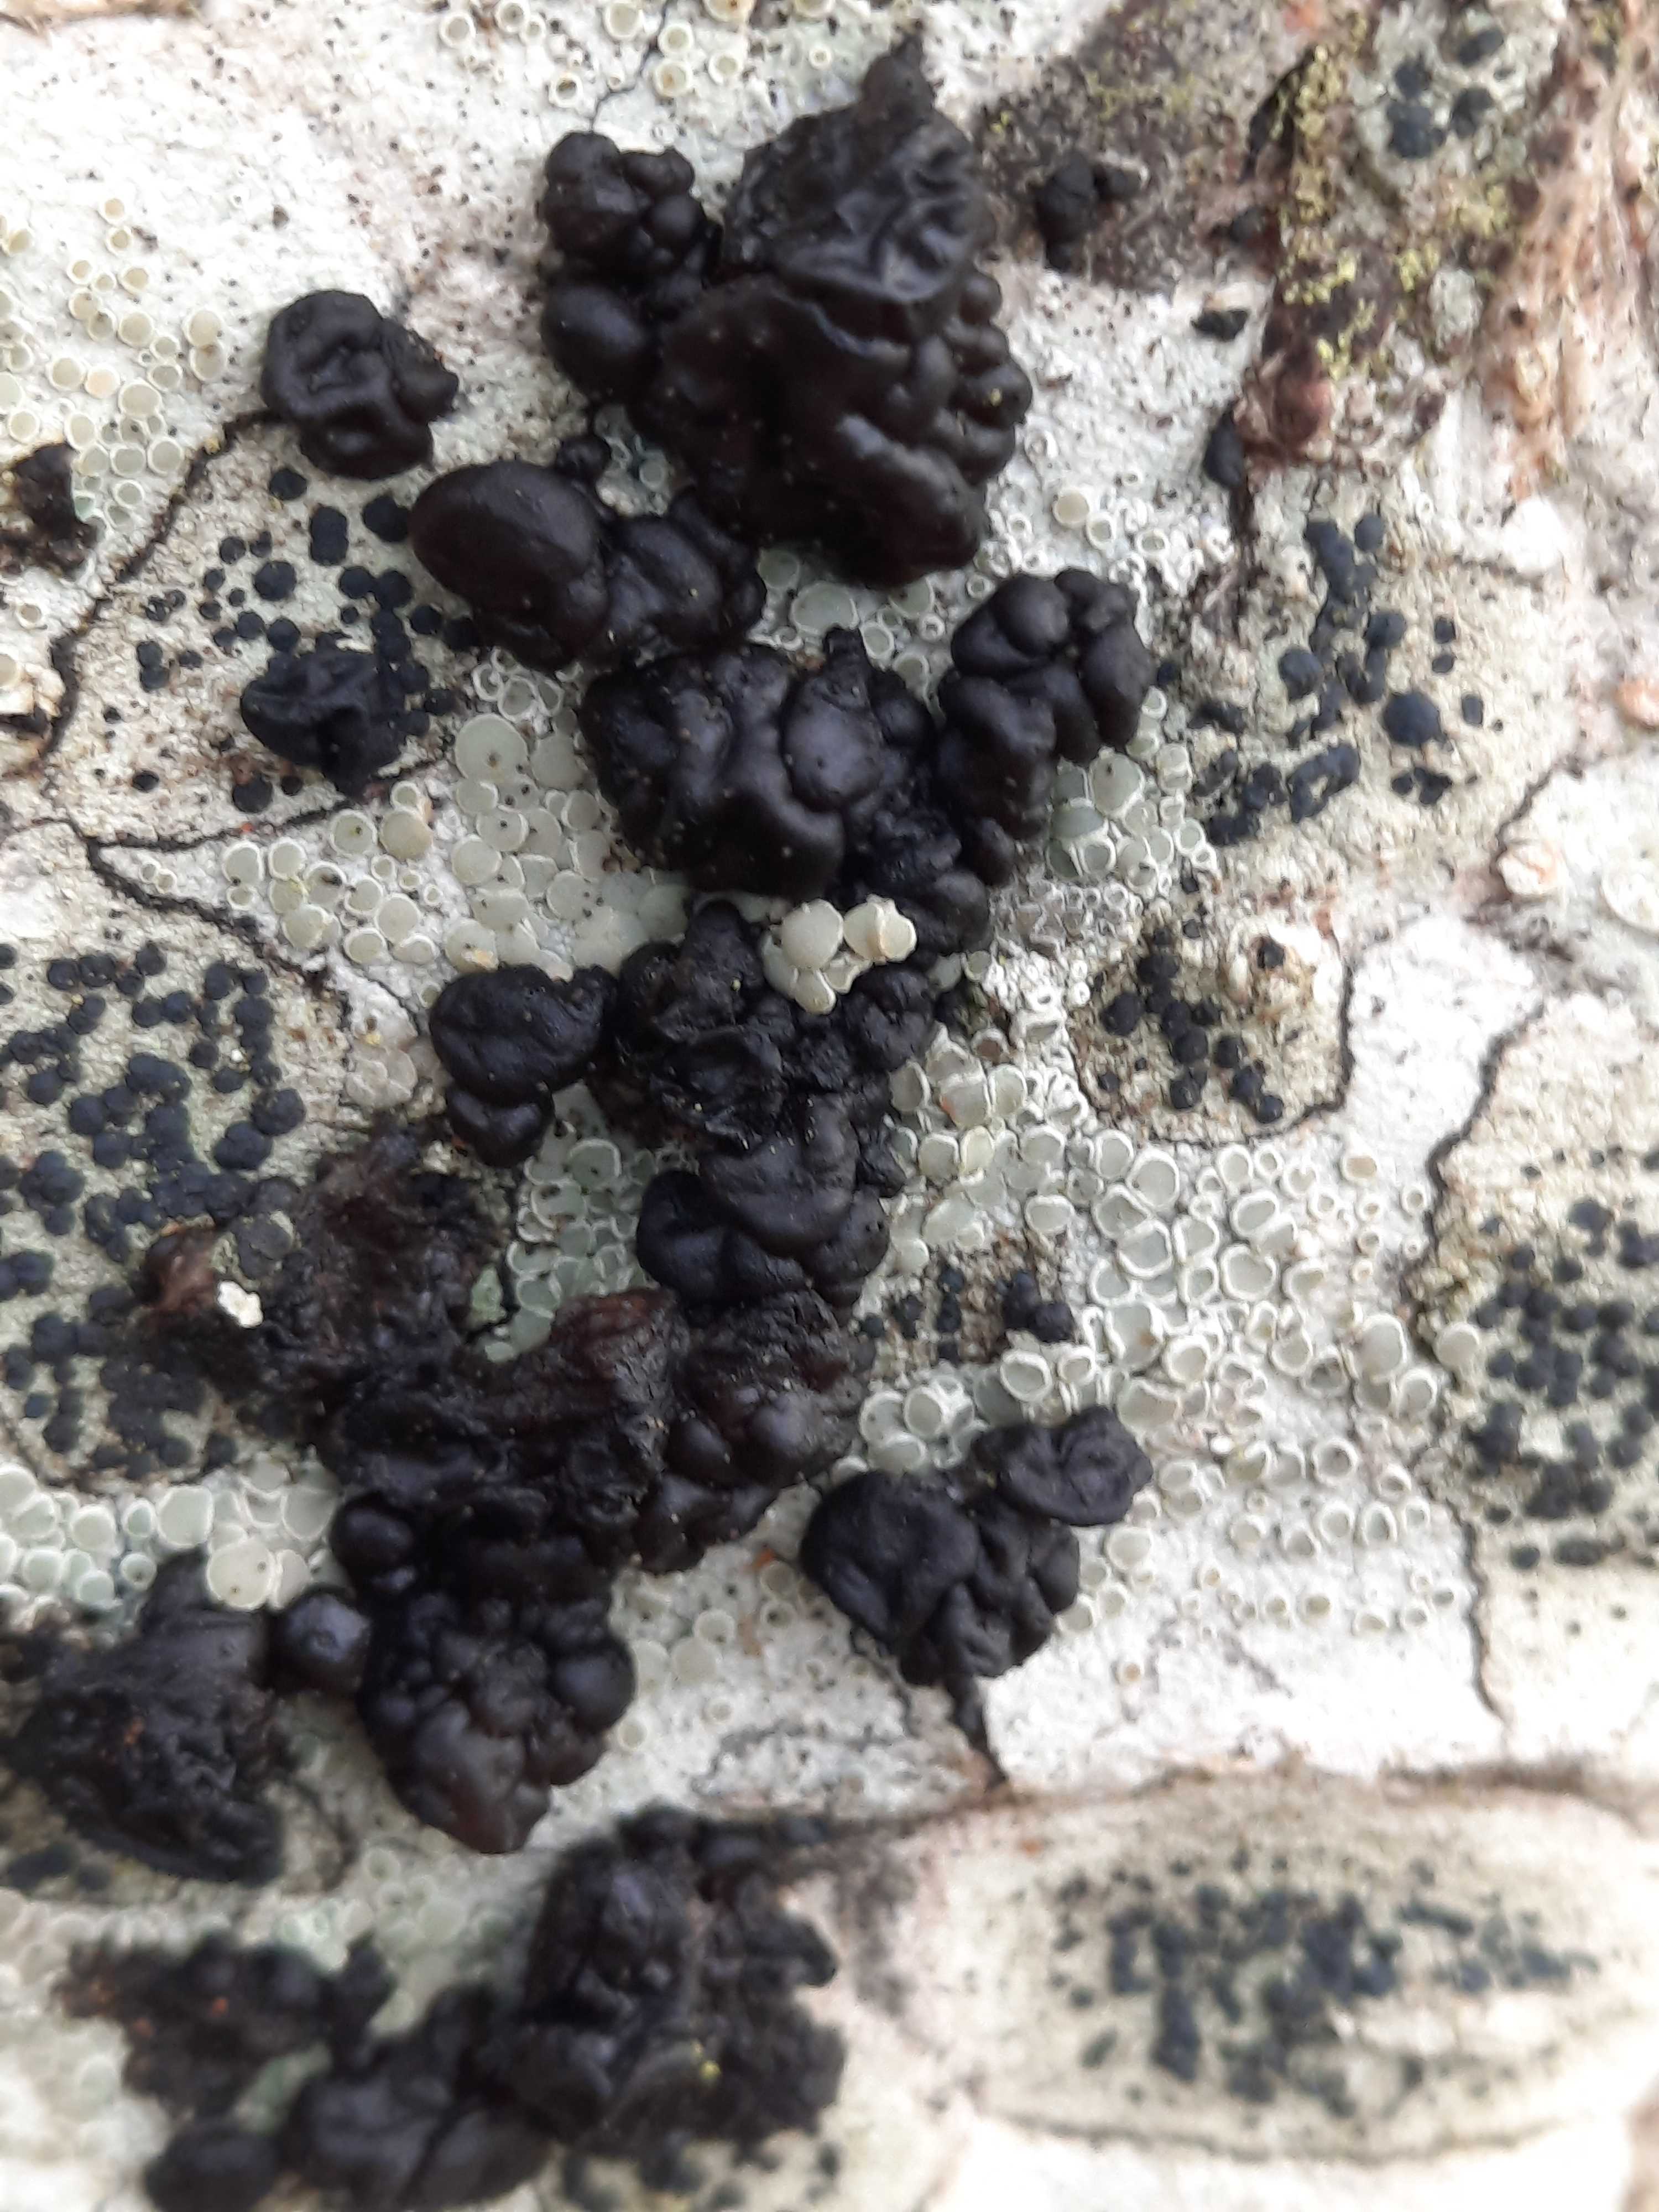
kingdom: Fungi
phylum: Basidiomycota
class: Agaricomycetes
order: Auriculariales
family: Auriculariaceae
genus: Exidia
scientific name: Exidia nigricans
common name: almindelig bævretop
